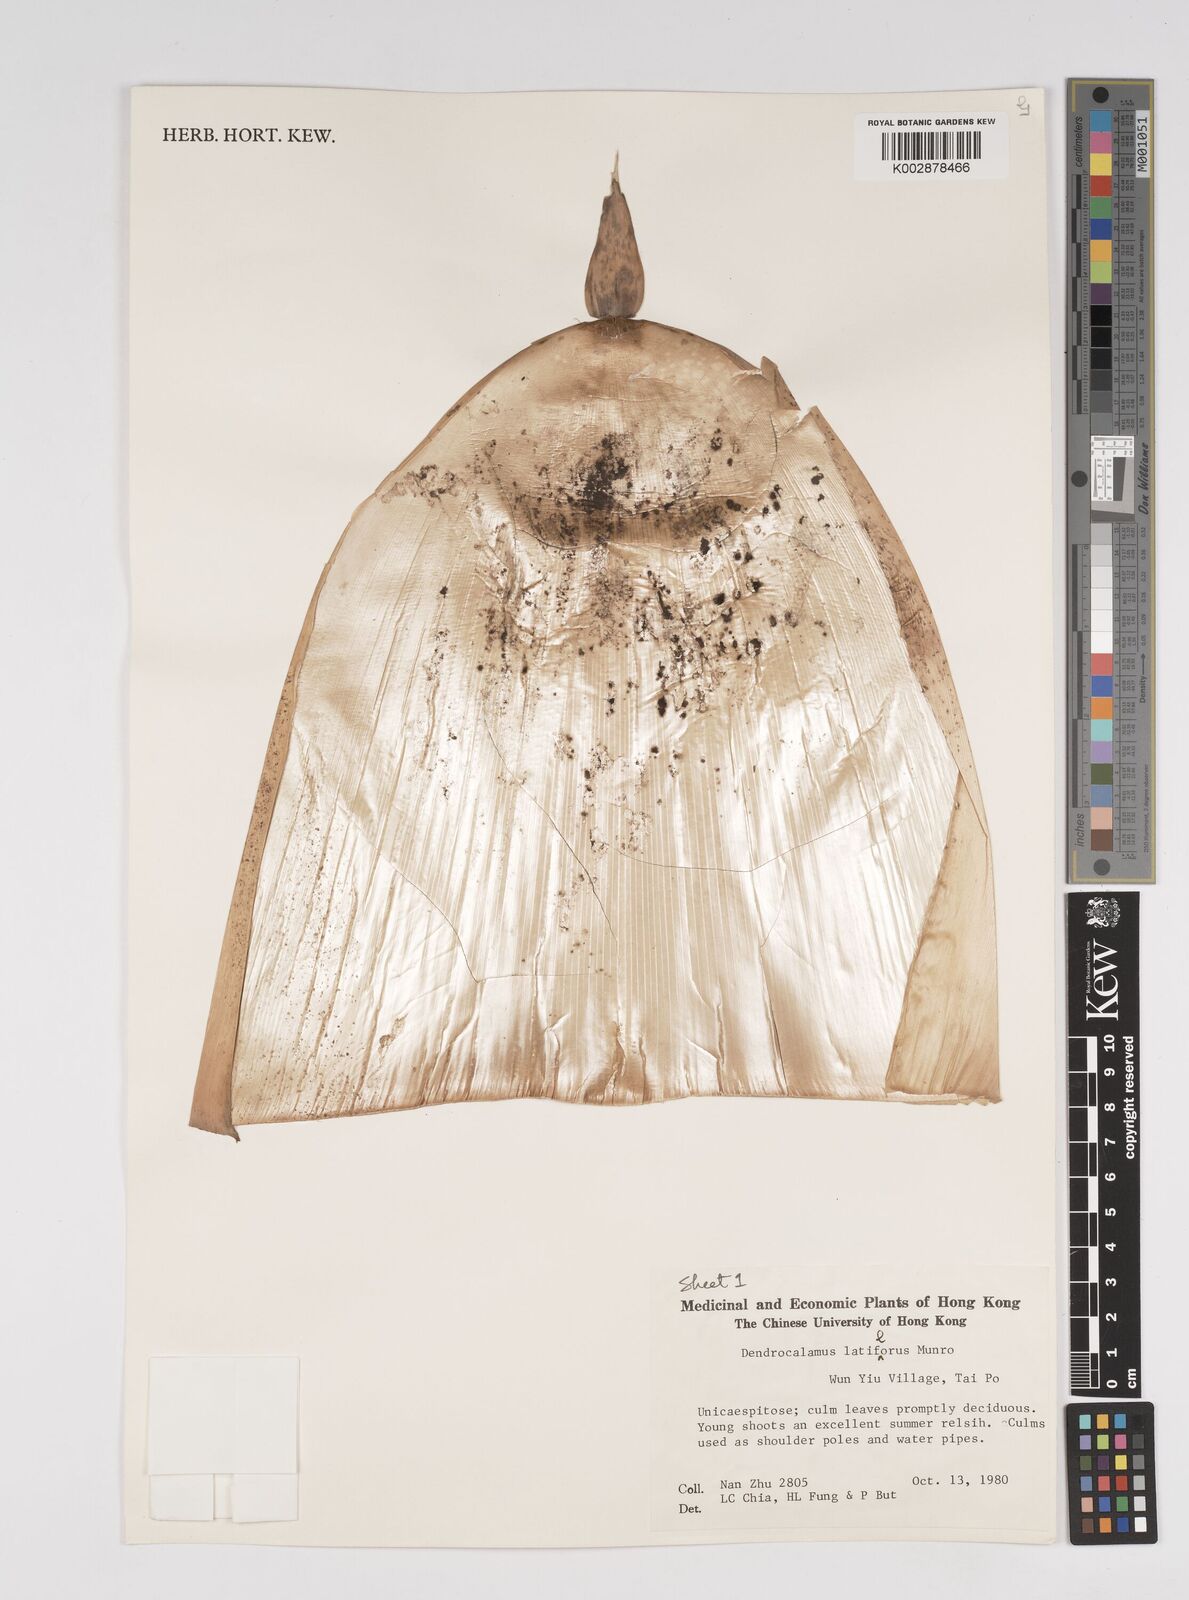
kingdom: Plantae
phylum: Tracheophyta
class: Liliopsida
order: Poales
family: Poaceae
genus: Dendrocalamus
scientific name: Dendrocalamus latiflorus
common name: Giant bamboo
